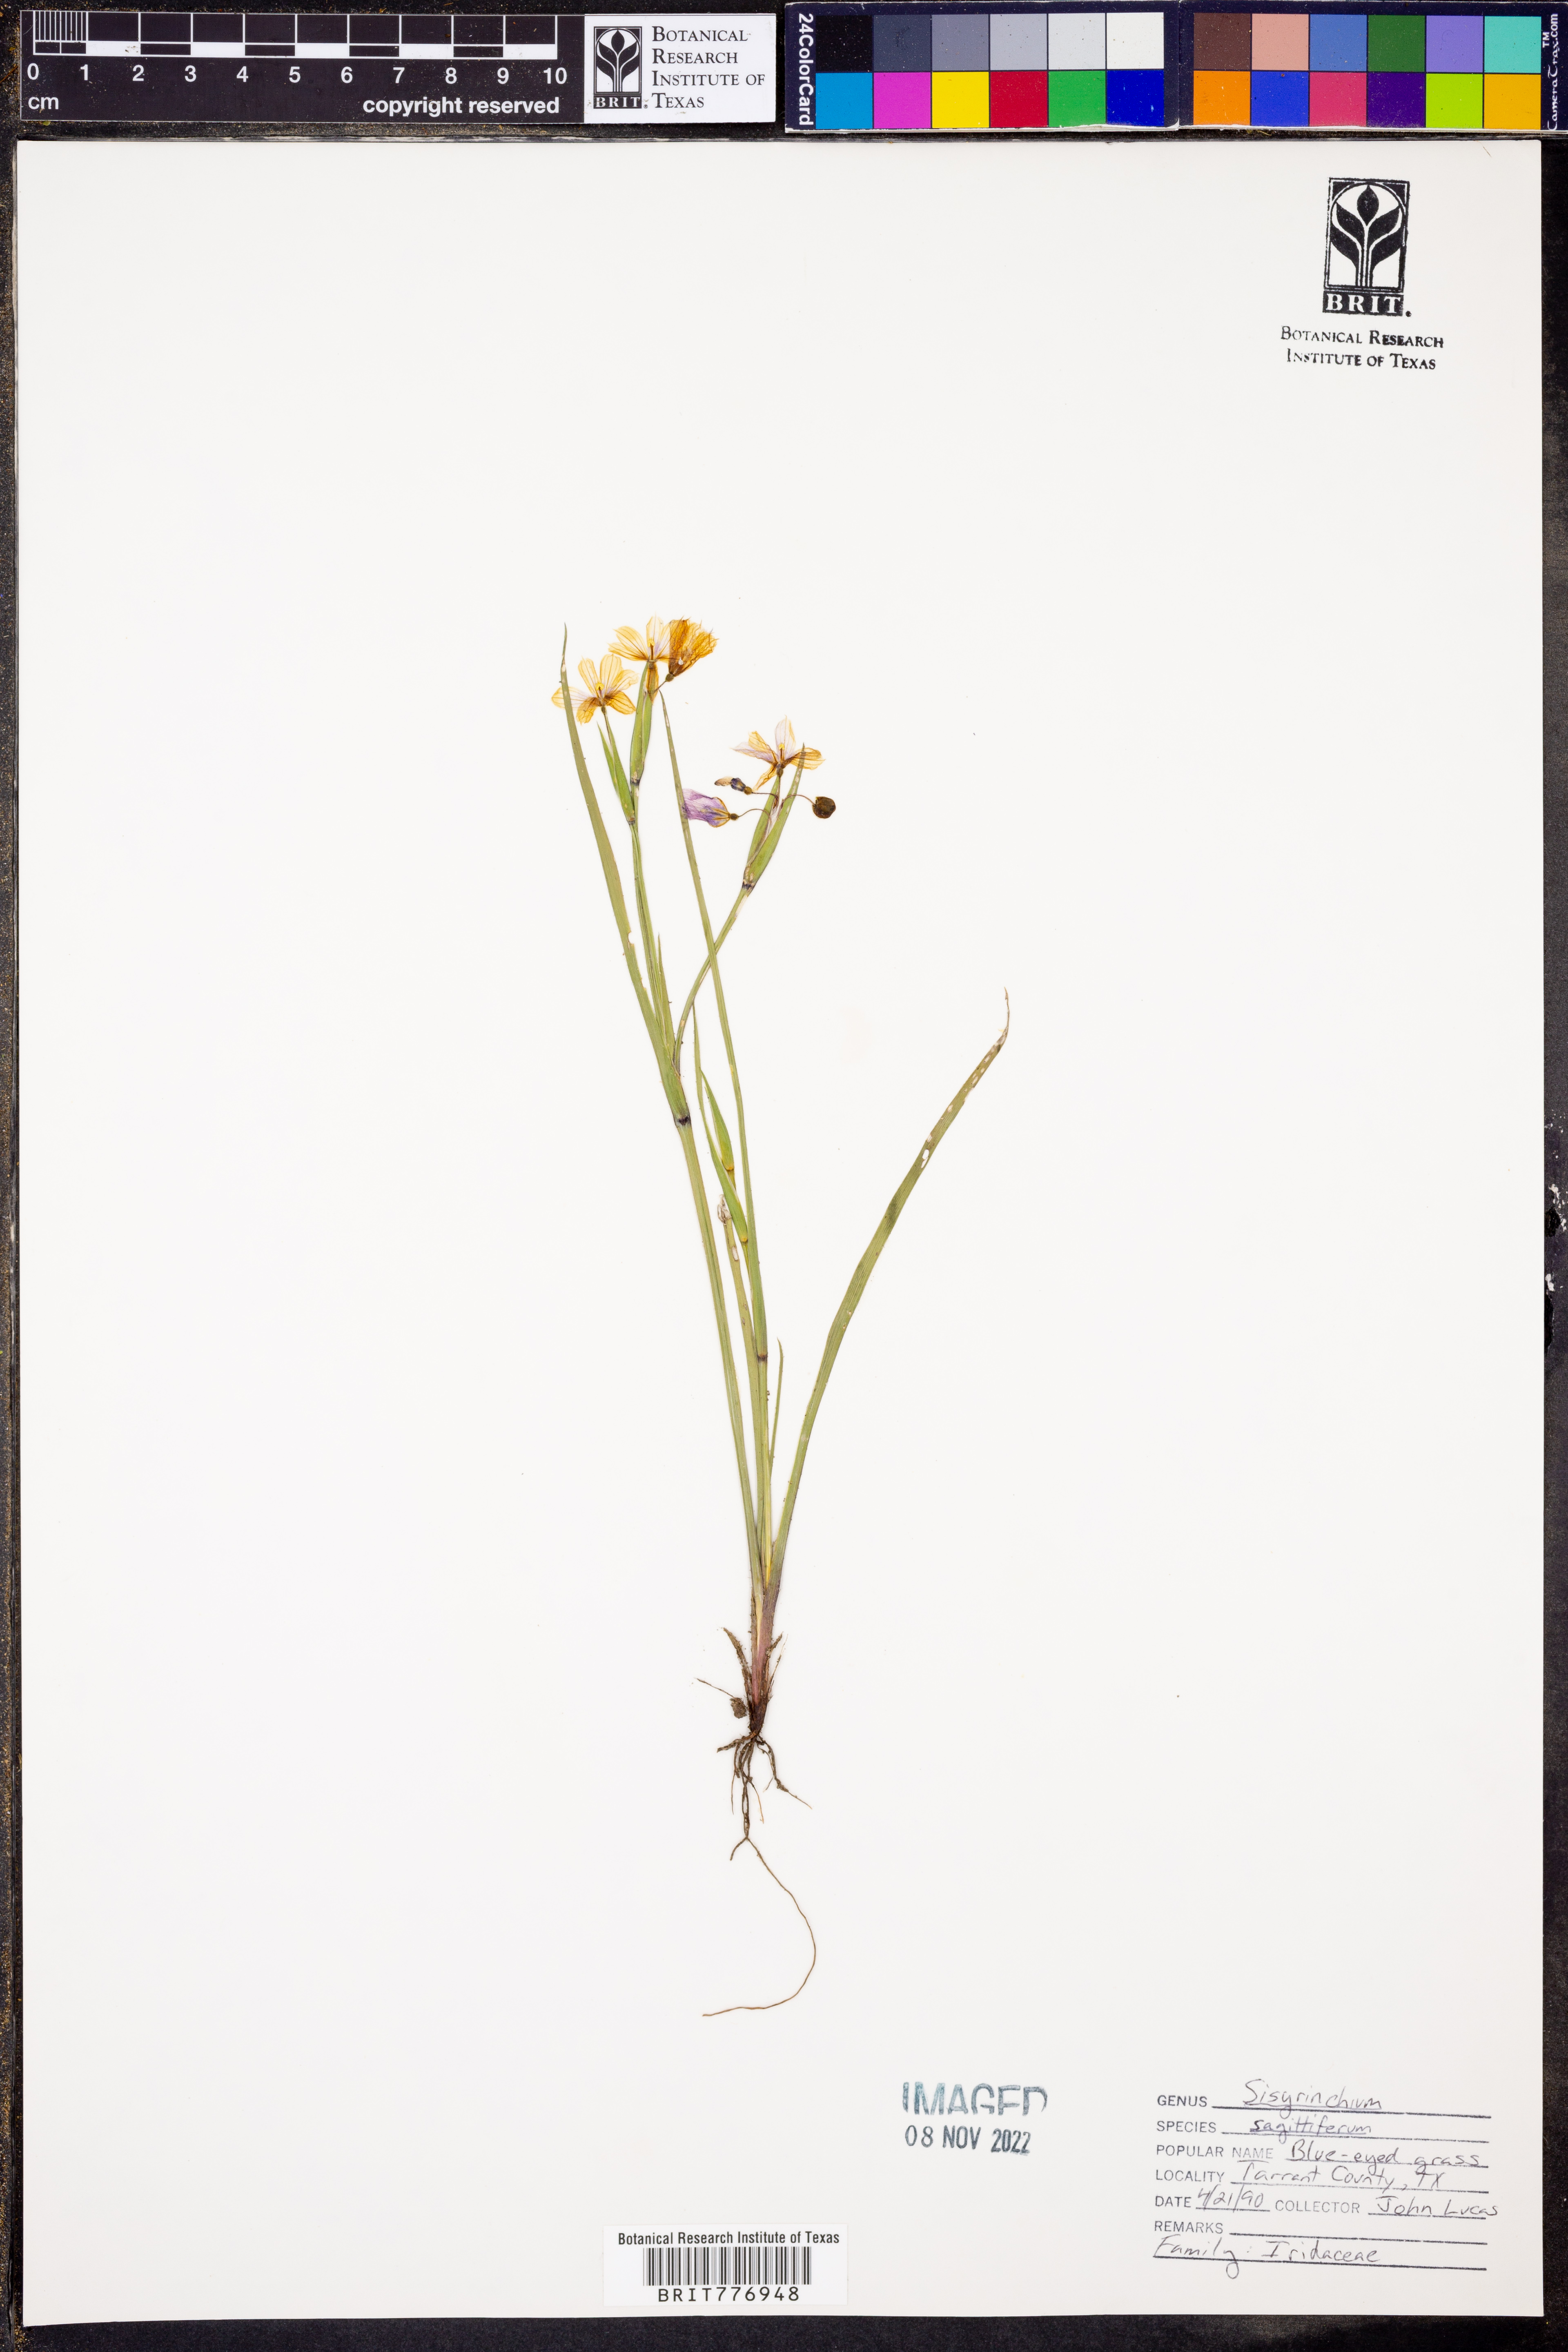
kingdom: Plantae
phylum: Tracheophyta
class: Liliopsida
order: Asparagales
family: Iridaceae
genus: Sisyrinchium
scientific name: Sisyrinchium sagittiferum
